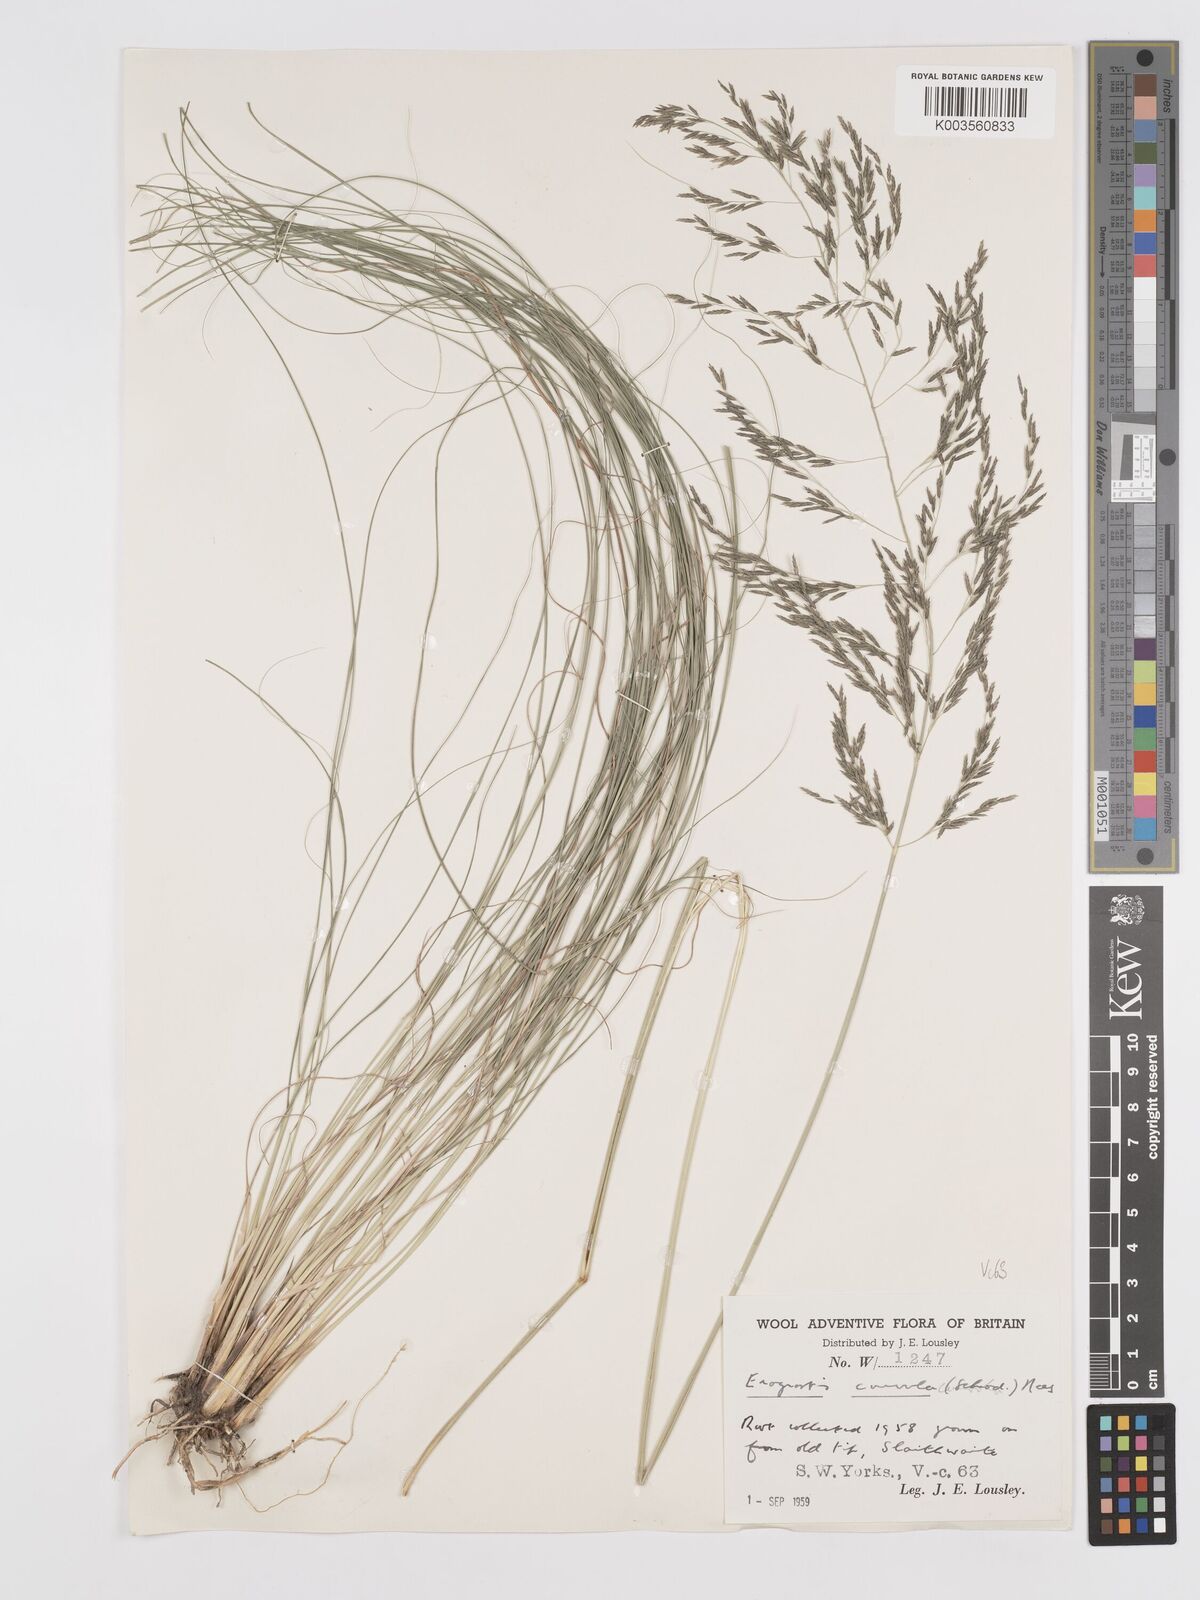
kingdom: Plantae
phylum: Tracheophyta
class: Liliopsida
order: Poales
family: Poaceae
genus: Eragrostis
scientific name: Eragrostis curvula
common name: African love-grass
